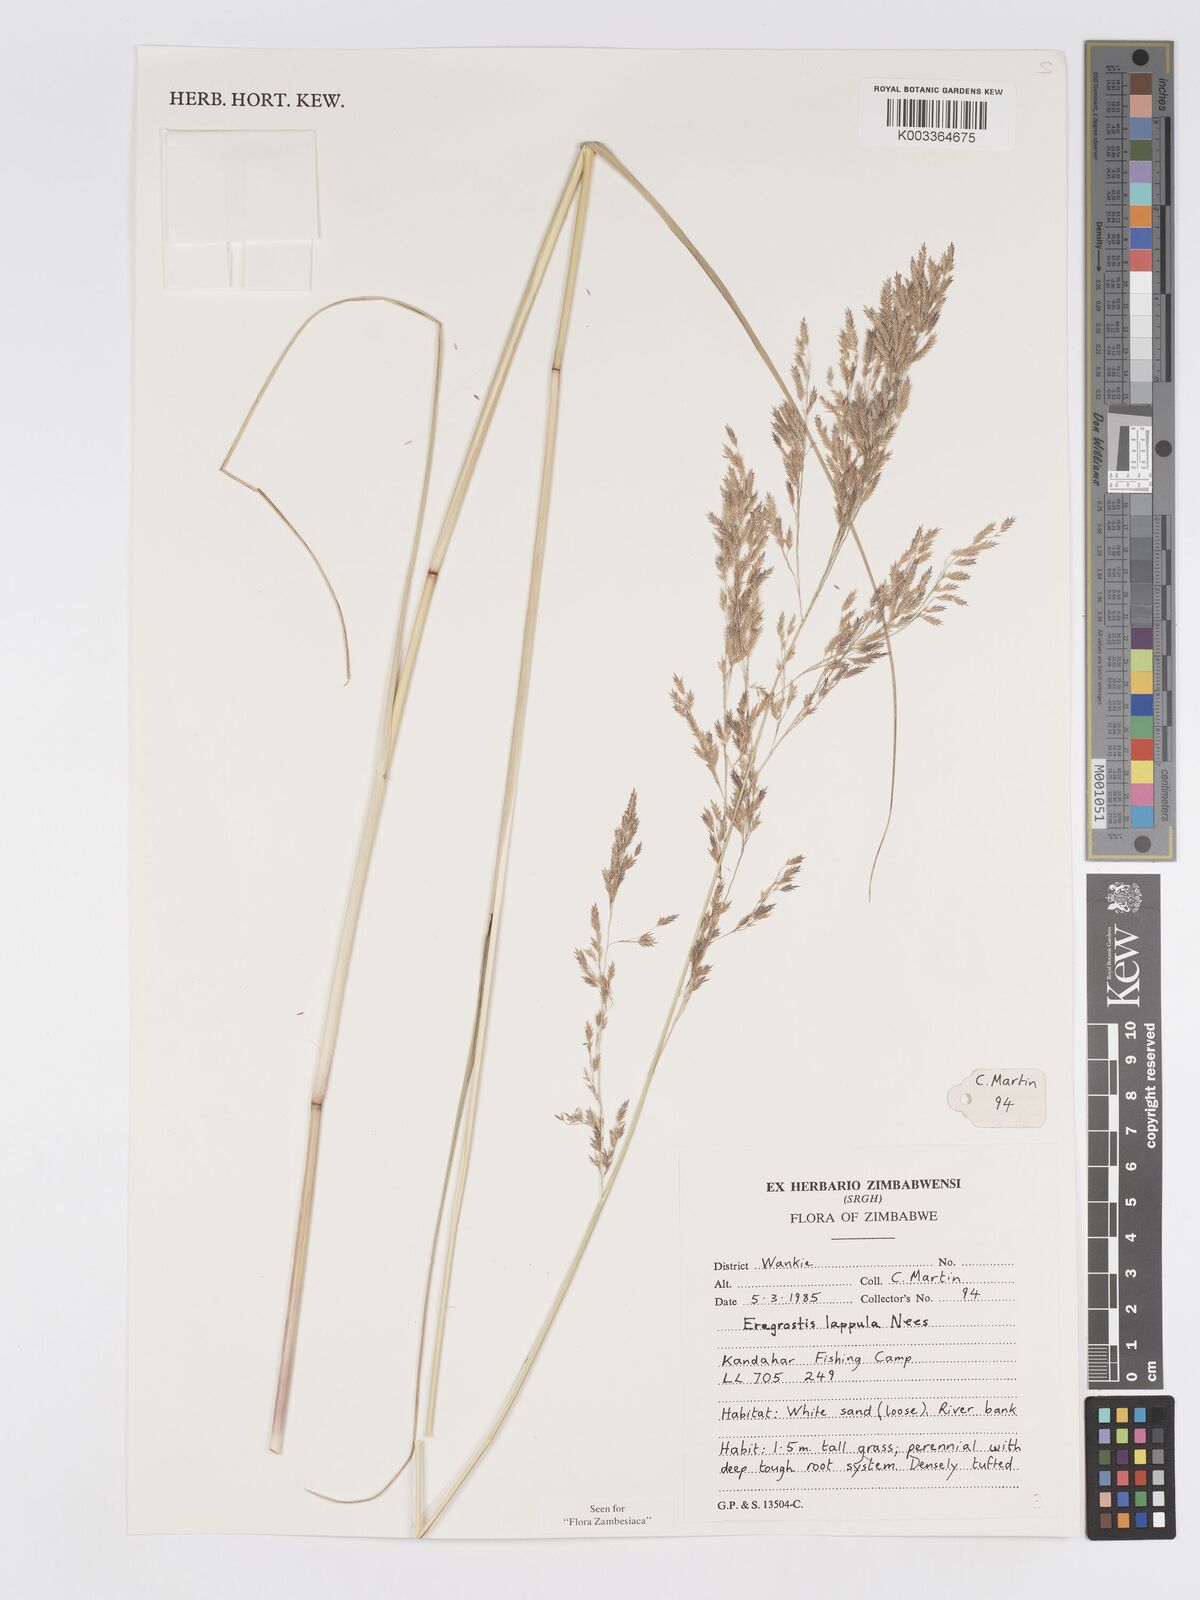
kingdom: Plantae
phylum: Tracheophyta
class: Liliopsida
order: Poales
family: Poaceae
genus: Eragrostis
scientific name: Eragrostis lappula
